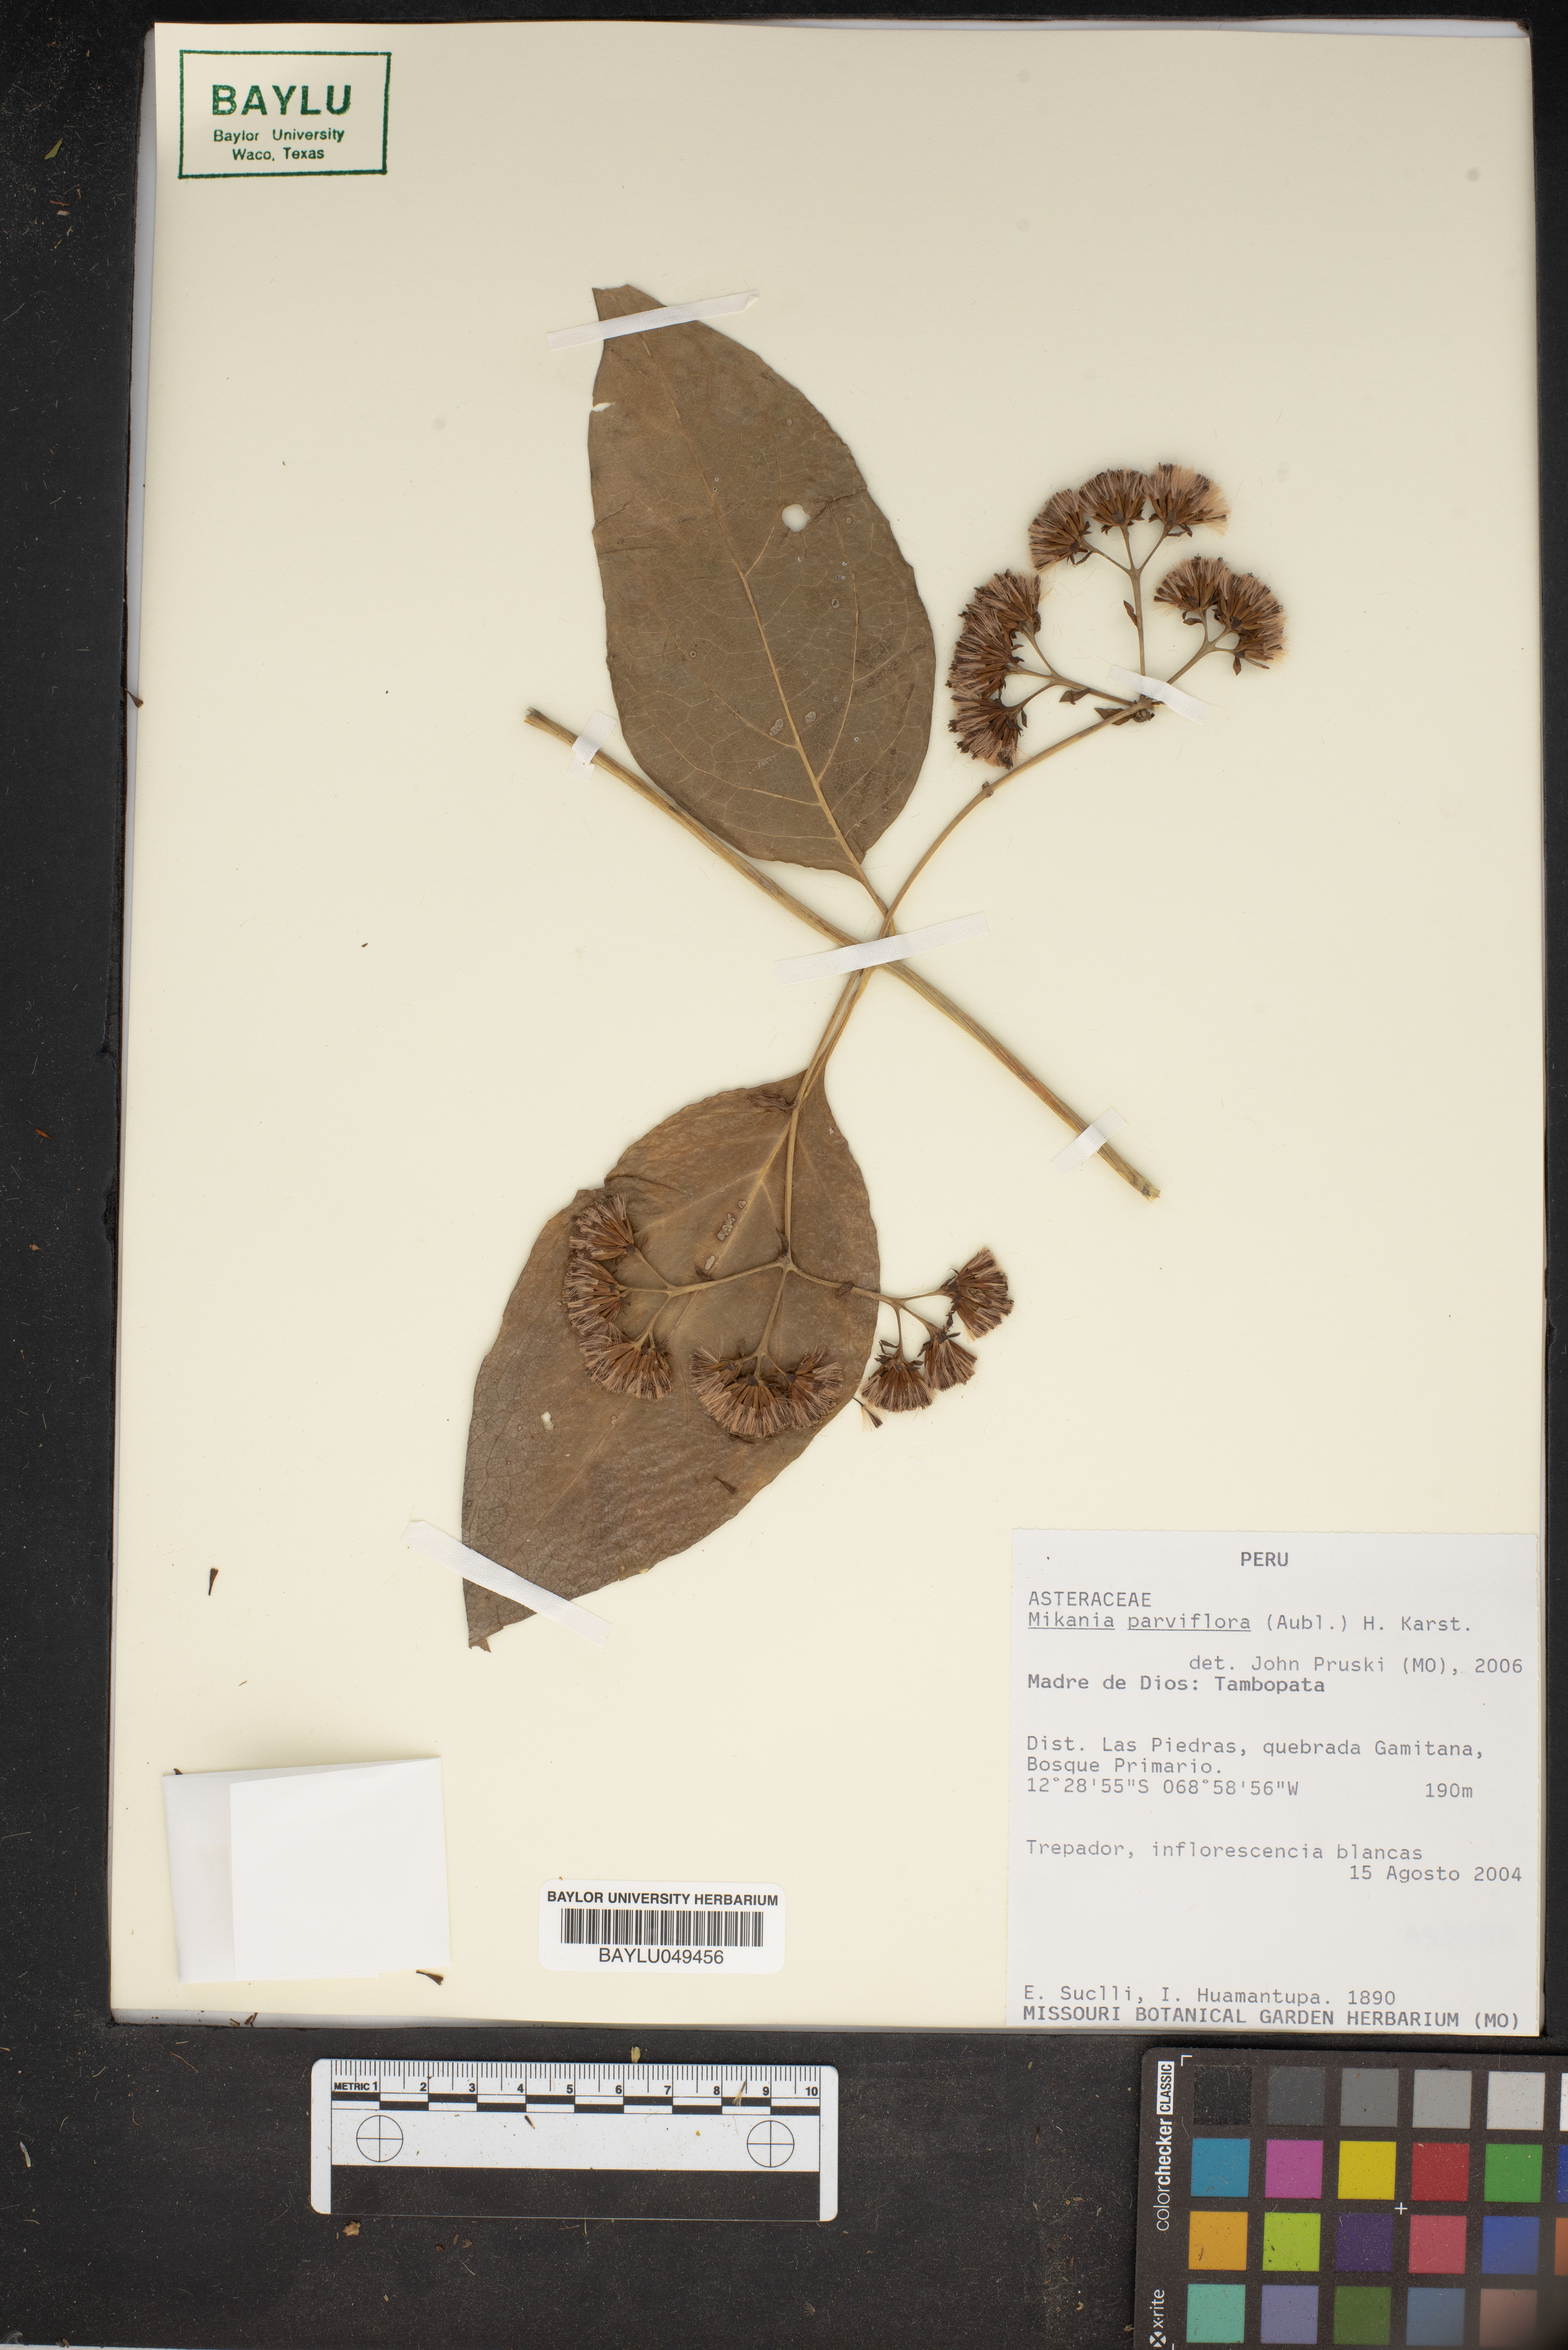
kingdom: Plantae
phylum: Tracheophyta
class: Magnoliopsida
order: Asterales
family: Asteraceae
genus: Mikania
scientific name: Mikania parviflora
